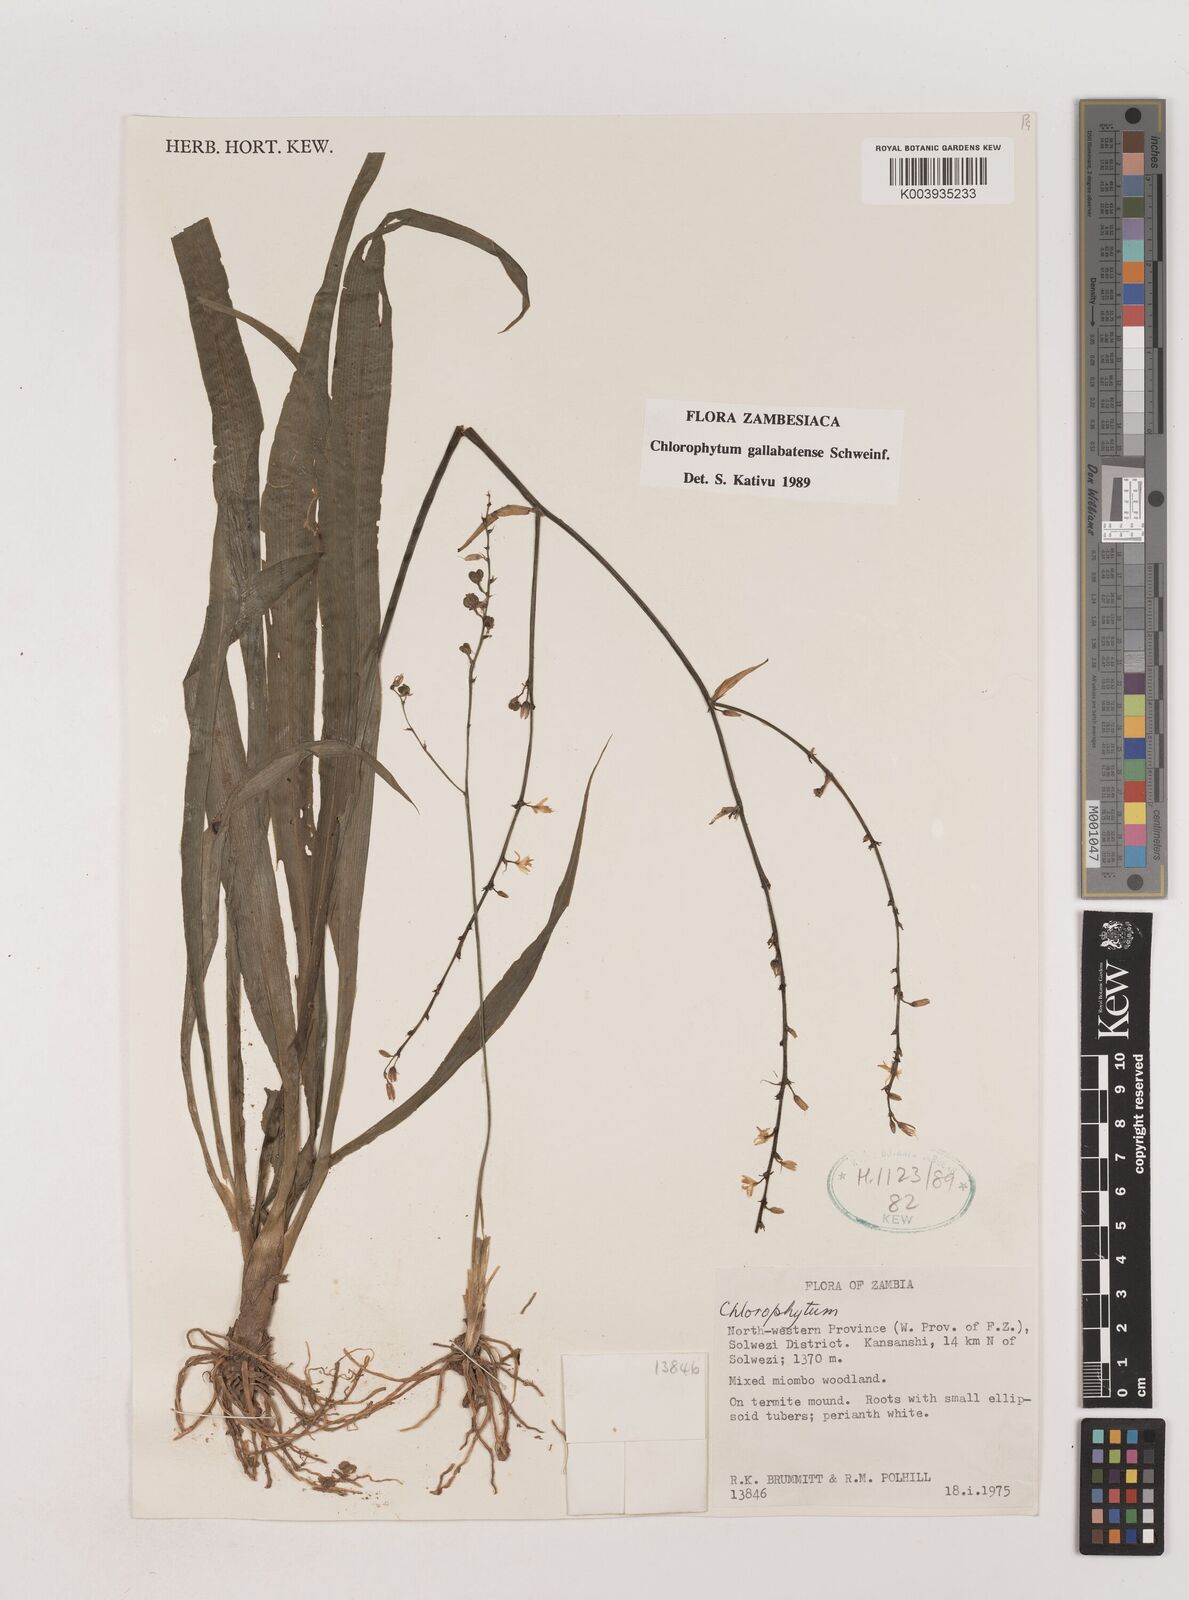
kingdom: Plantae
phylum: Tracheophyta
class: Liliopsida
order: Asparagales
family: Asparagaceae
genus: Chlorophytum
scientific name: Chlorophytum gallabatense
